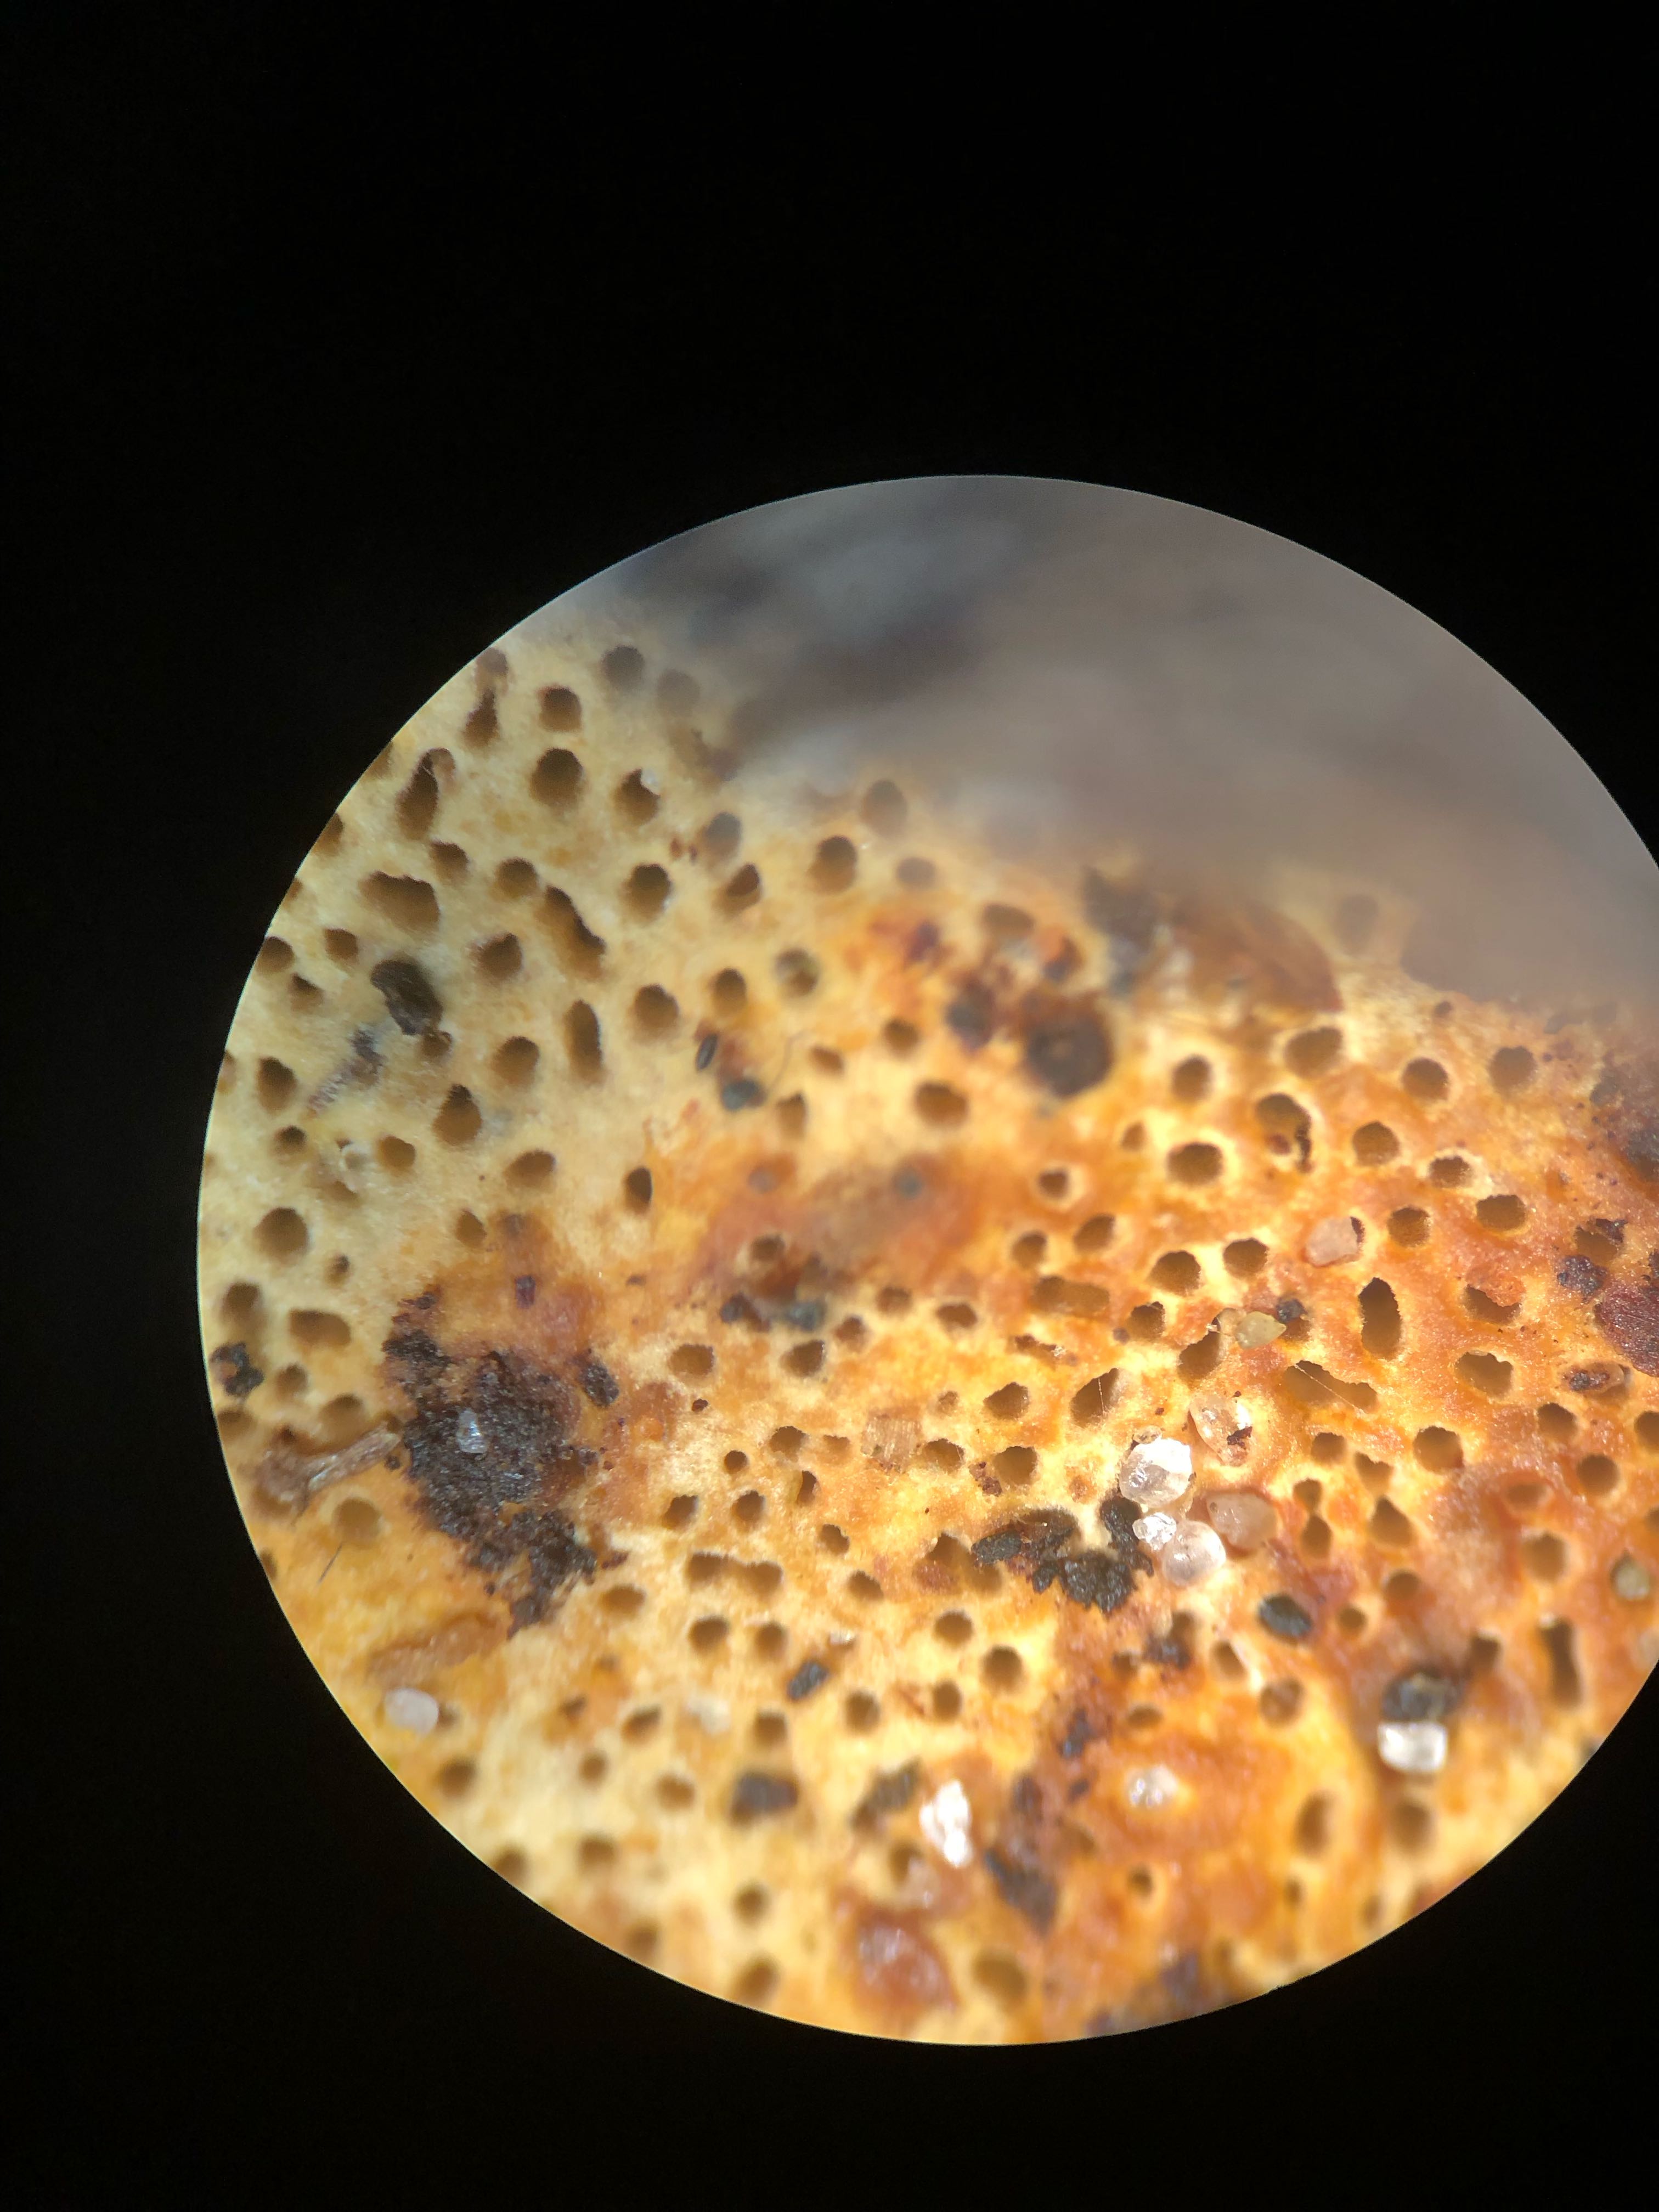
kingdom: Fungi
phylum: Basidiomycota
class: Agaricomycetes
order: Gloeophyllales
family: Gloeophyllaceae
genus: Gloeophyllum
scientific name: Gloeophyllum odoratum
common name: duftende korkhat
